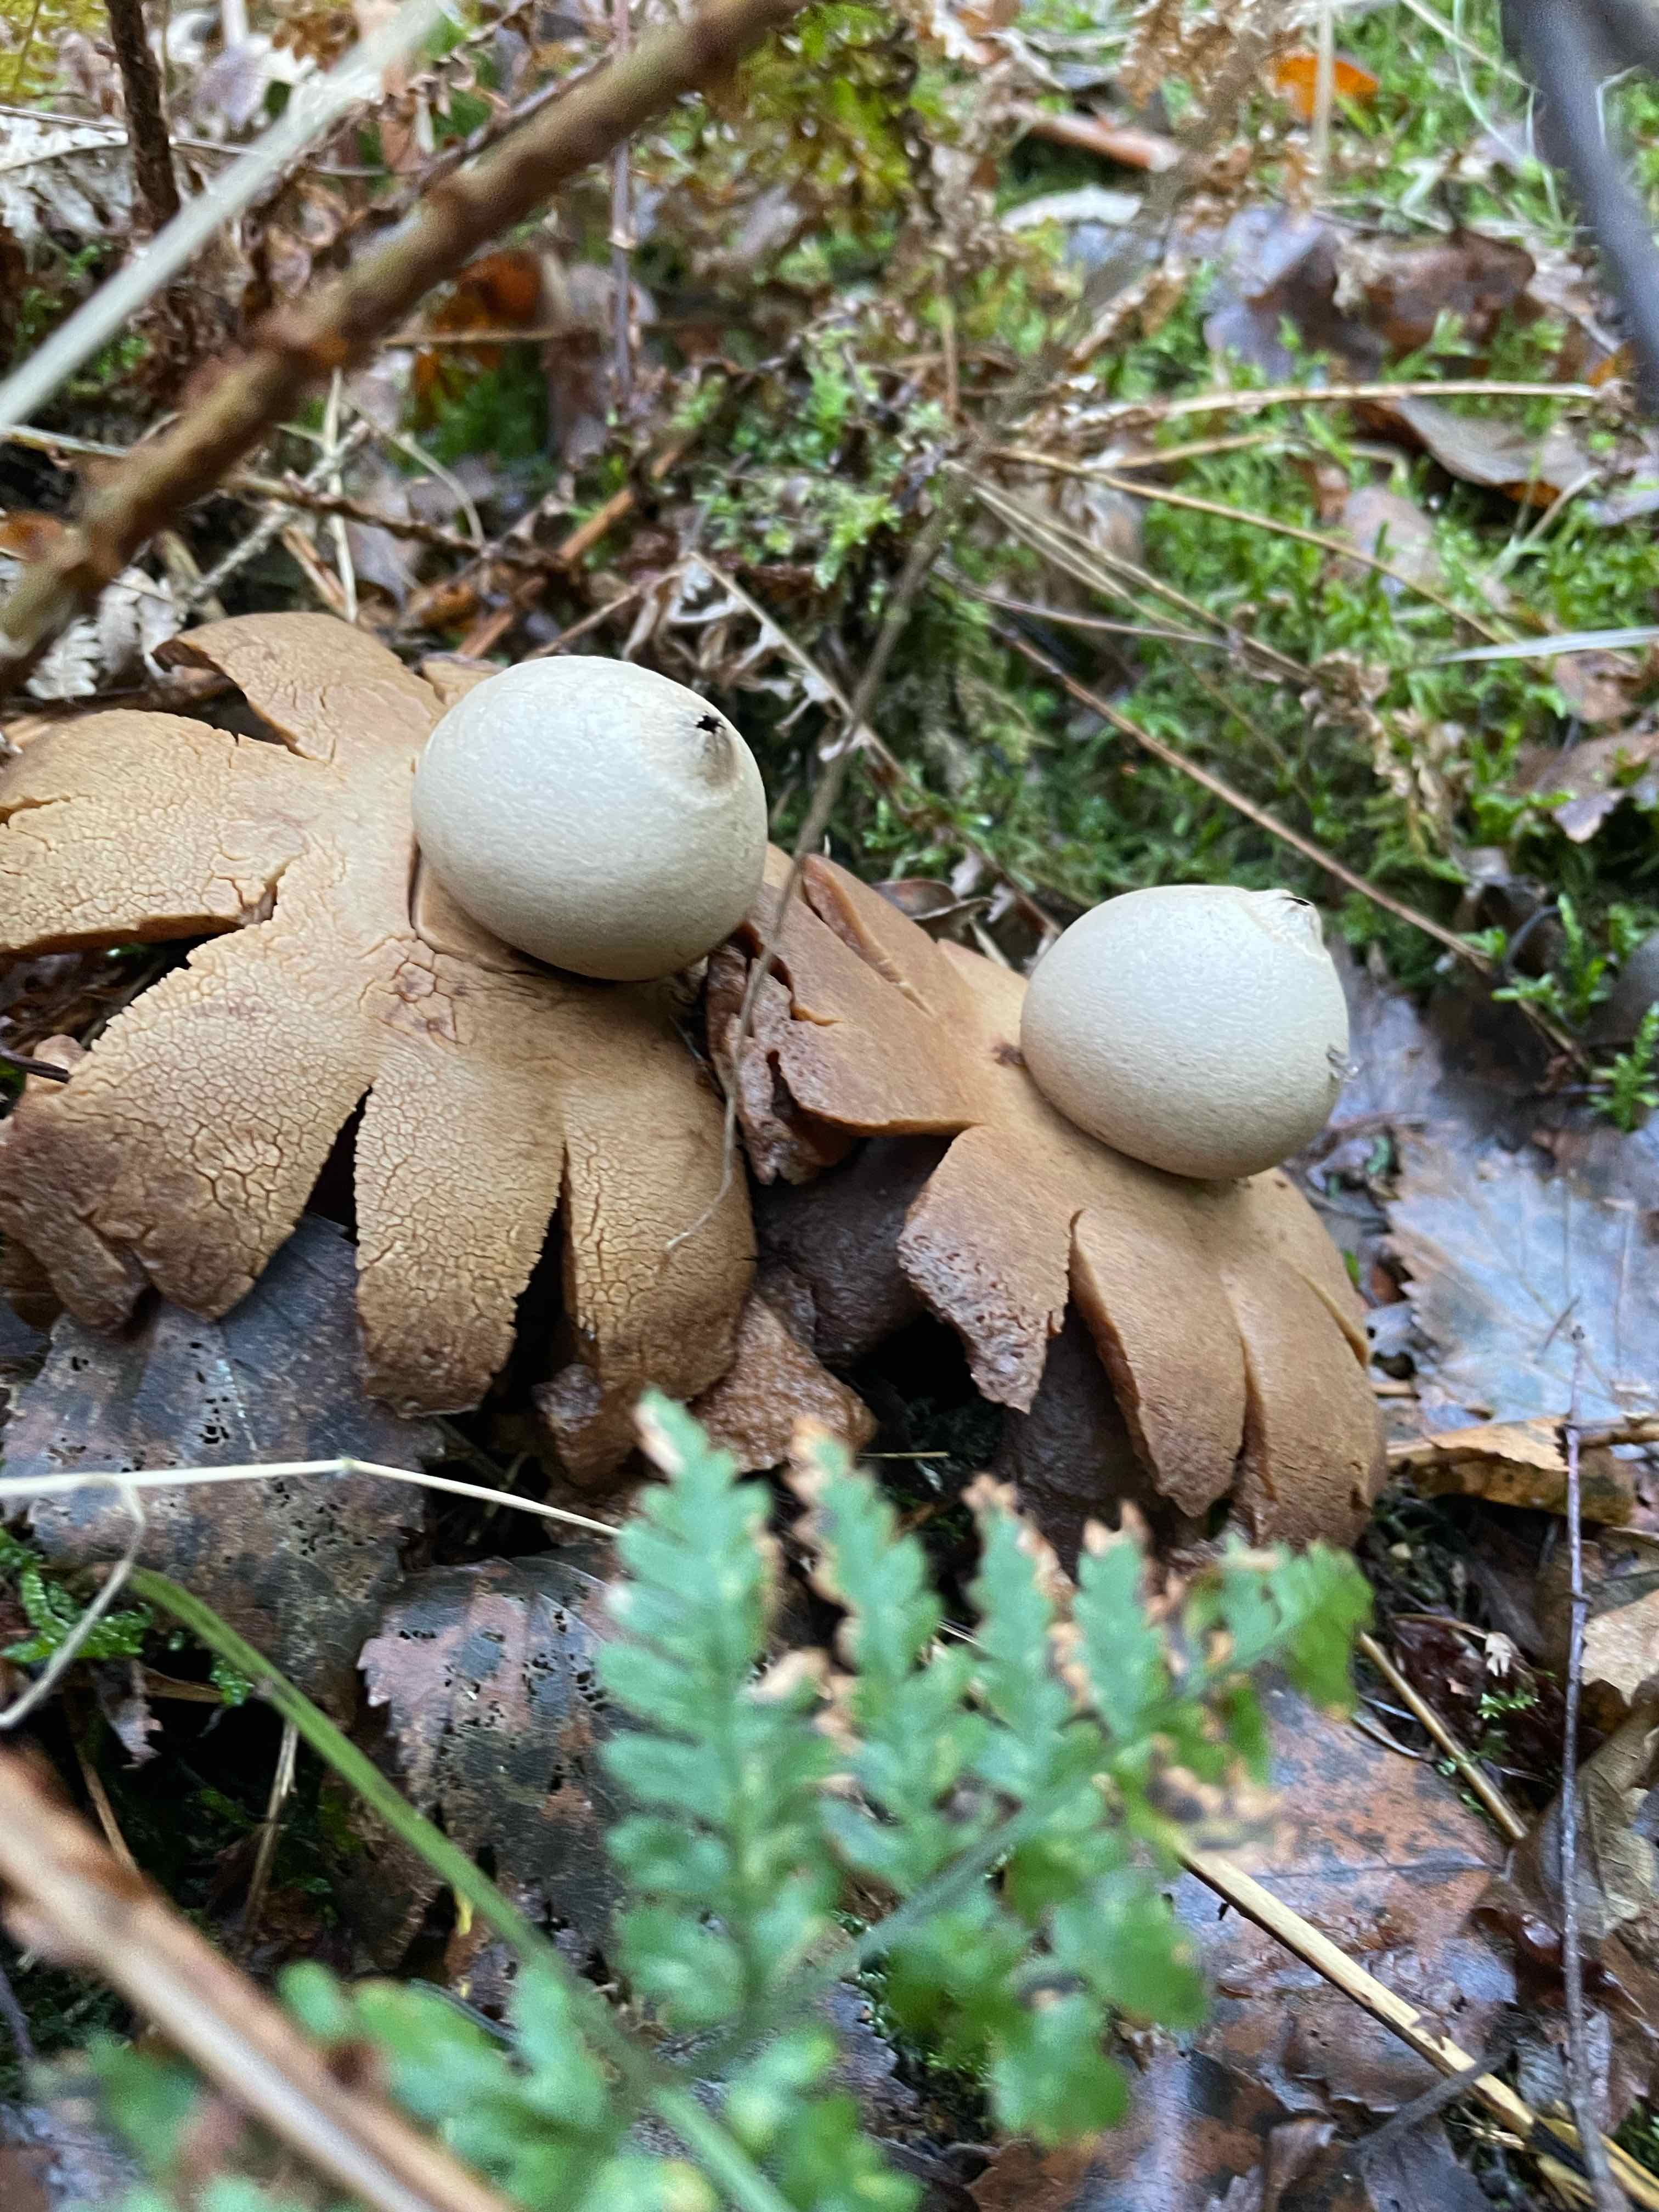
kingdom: Fungi
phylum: Basidiomycota
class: Agaricomycetes
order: Geastrales
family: Geastraceae
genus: Geastrum
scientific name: Geastrum
